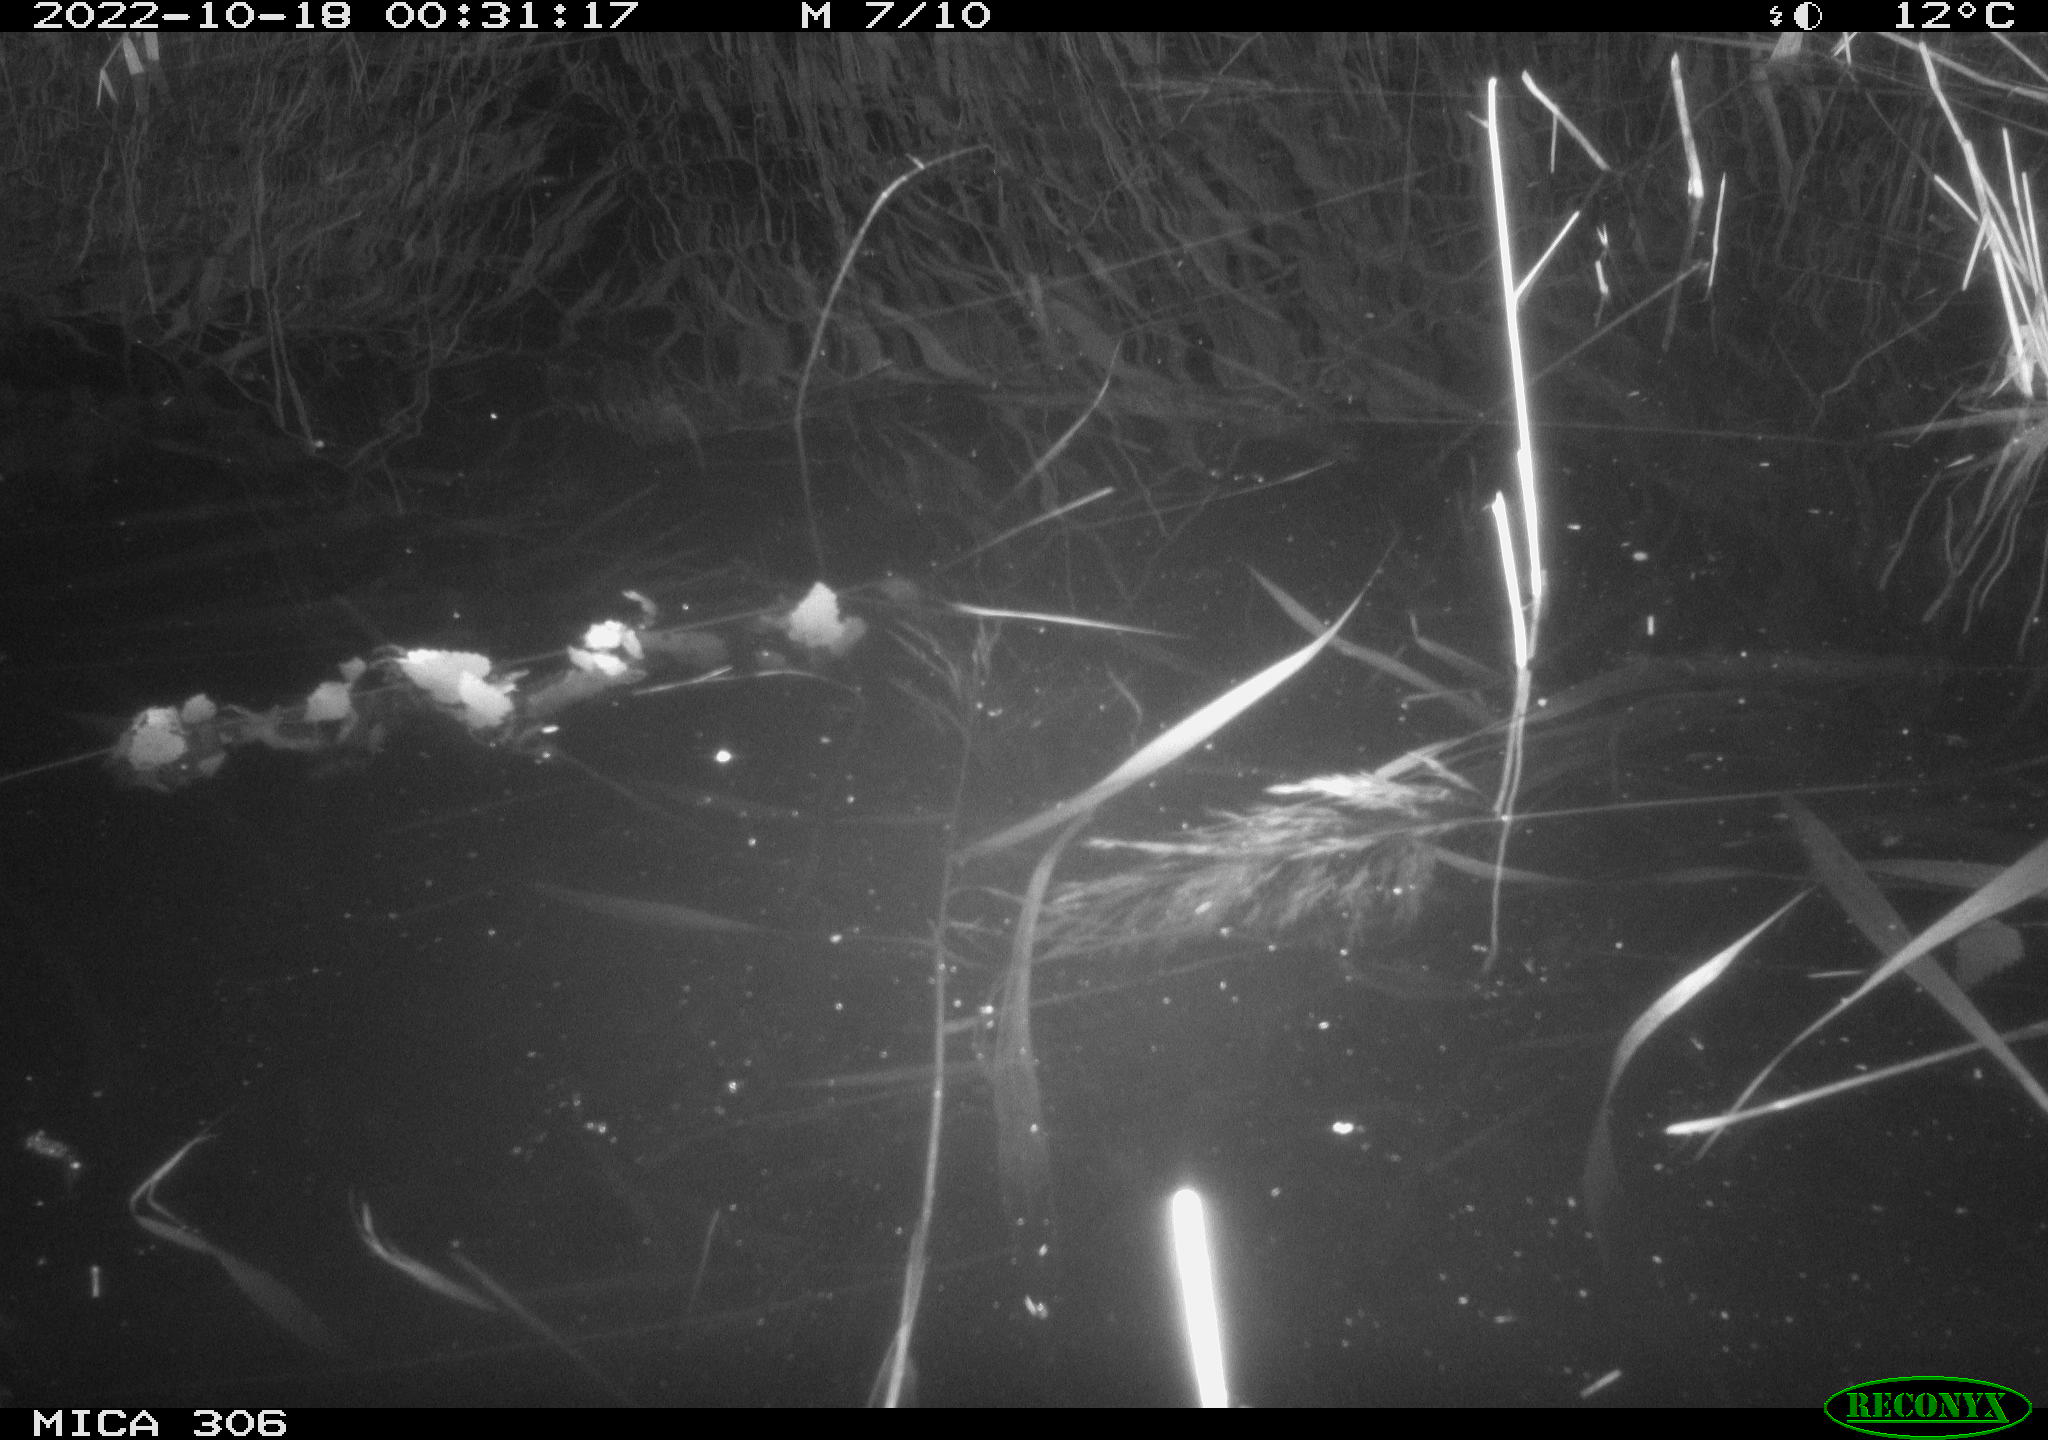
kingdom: Animalia
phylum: Chordata
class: Mammalia
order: Rodentia
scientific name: Rodentia
